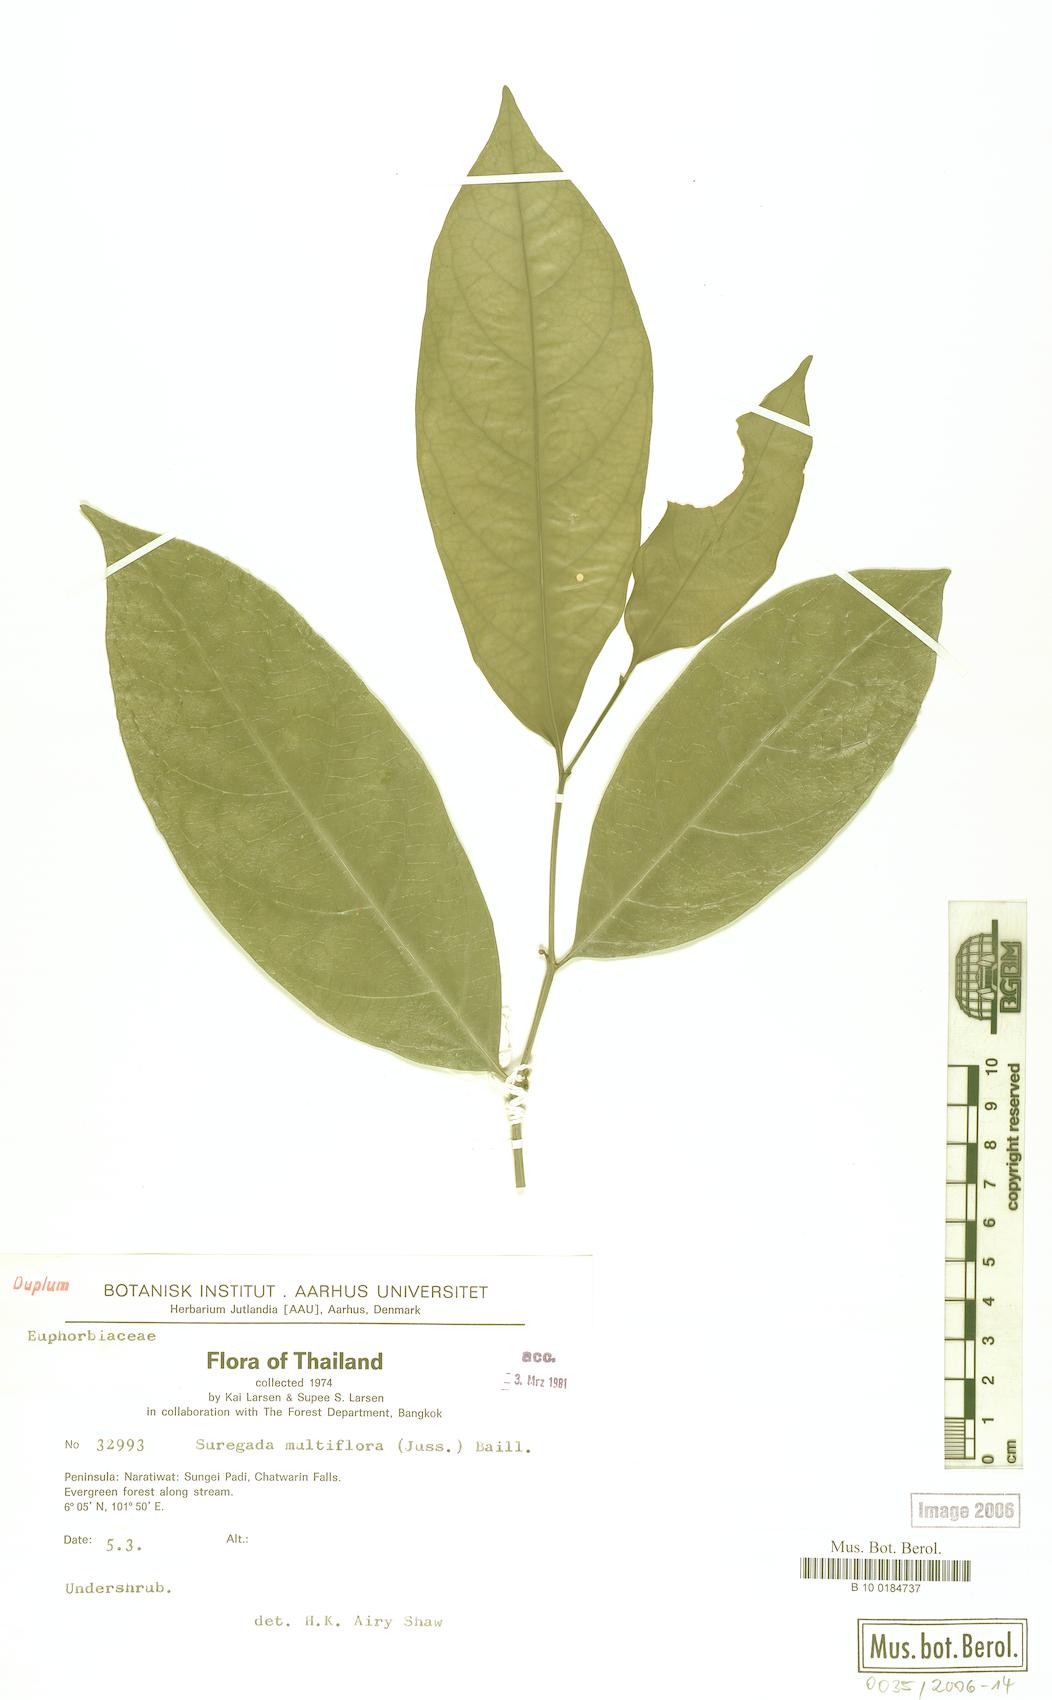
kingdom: Plantae
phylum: Tracheophyta
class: Magnoliopsida
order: Malpighiales
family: Euphorbiaceae
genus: Suregada
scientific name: Suregada multiflora
